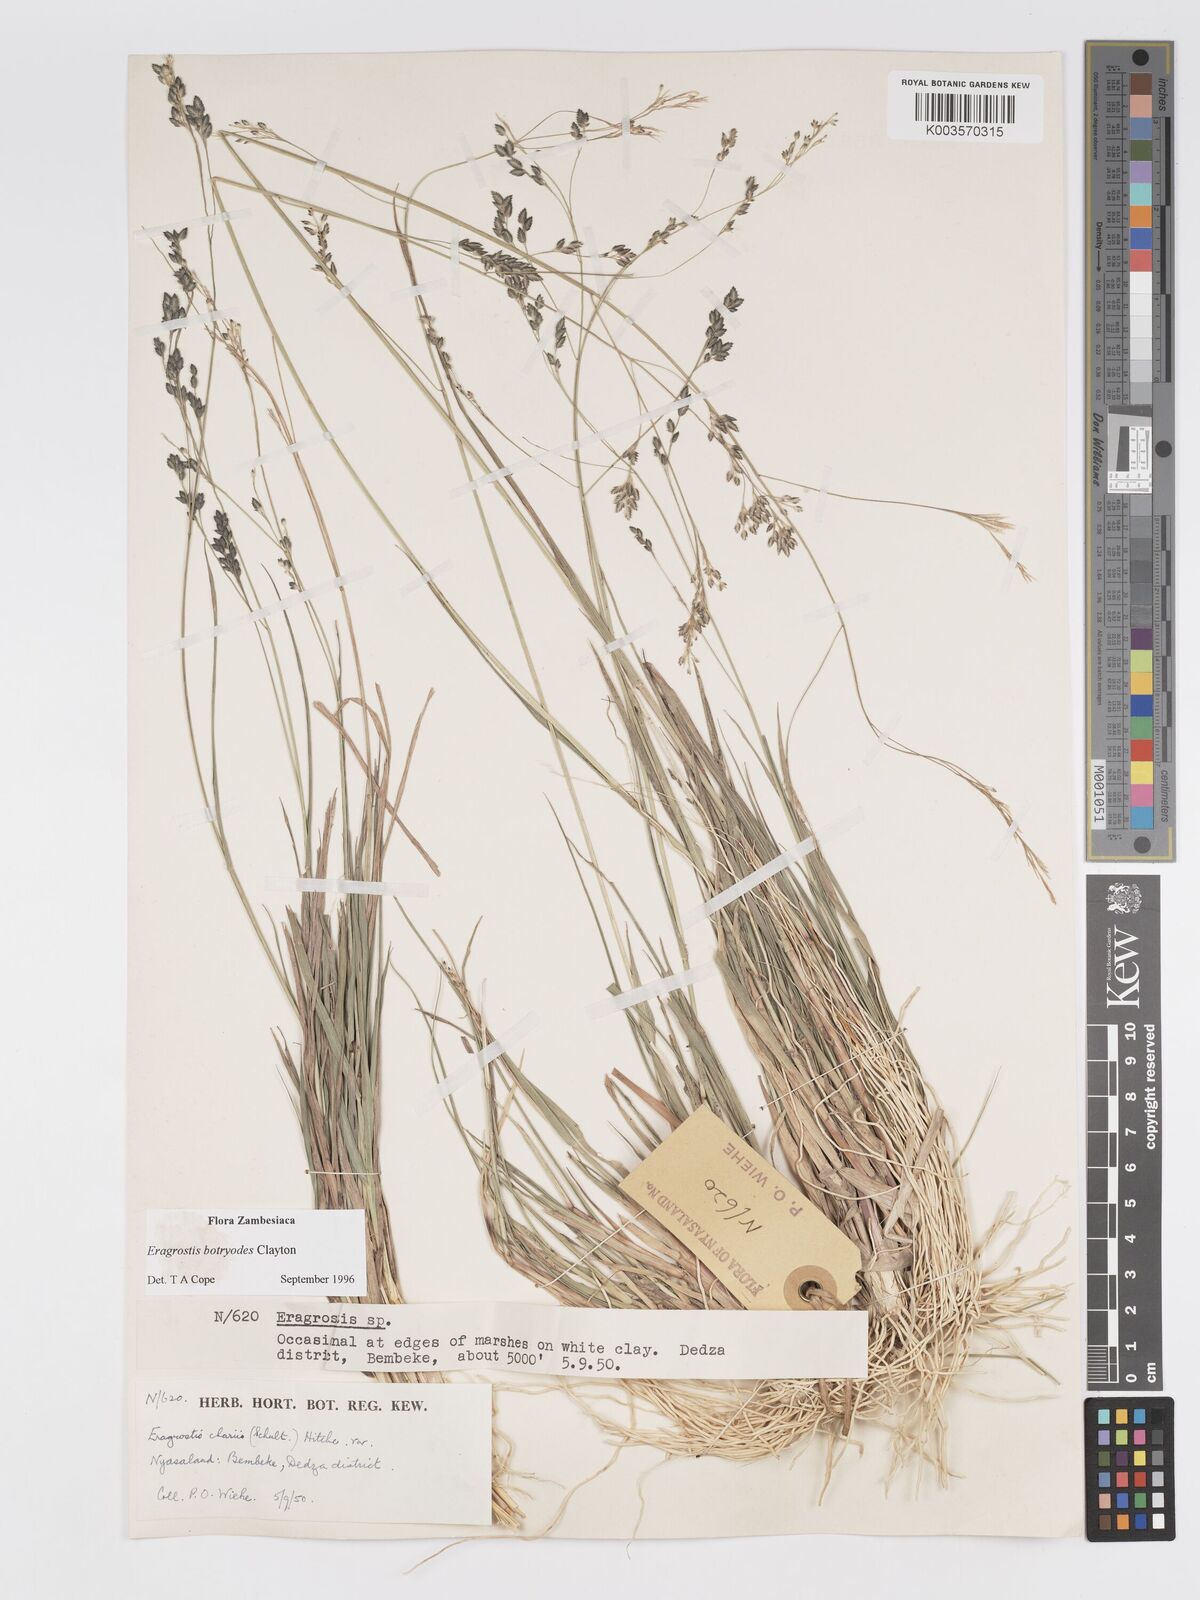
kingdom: Plantae
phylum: Tracheophyta
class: Liliopsida
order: Poales
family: Poaceae
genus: Eragrostis
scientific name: Eragrostis botryodes
